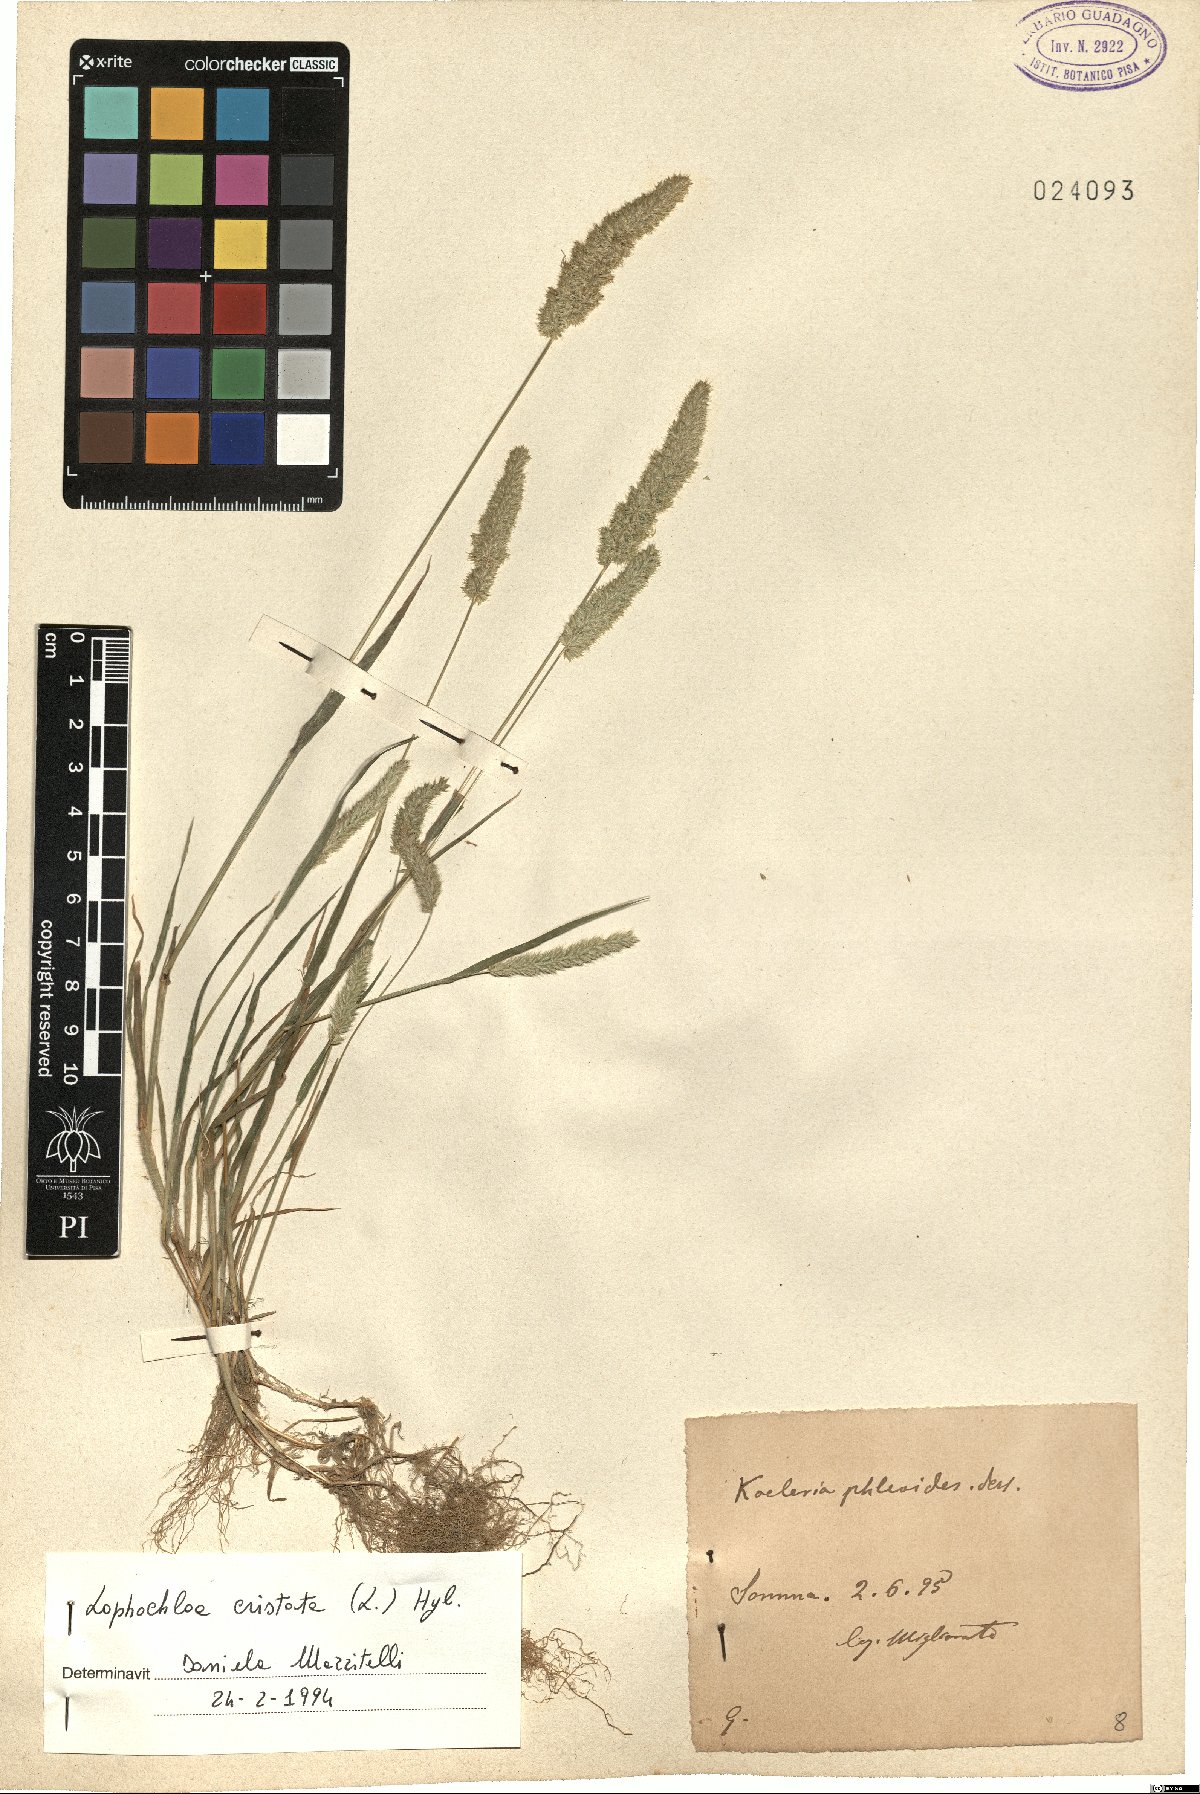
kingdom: Plantae
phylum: Tracheophyta
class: Liliopsida
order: Poales
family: Poaceae
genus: Rostraria
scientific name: Rostraria cristata
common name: Mediterranean hair-grass
